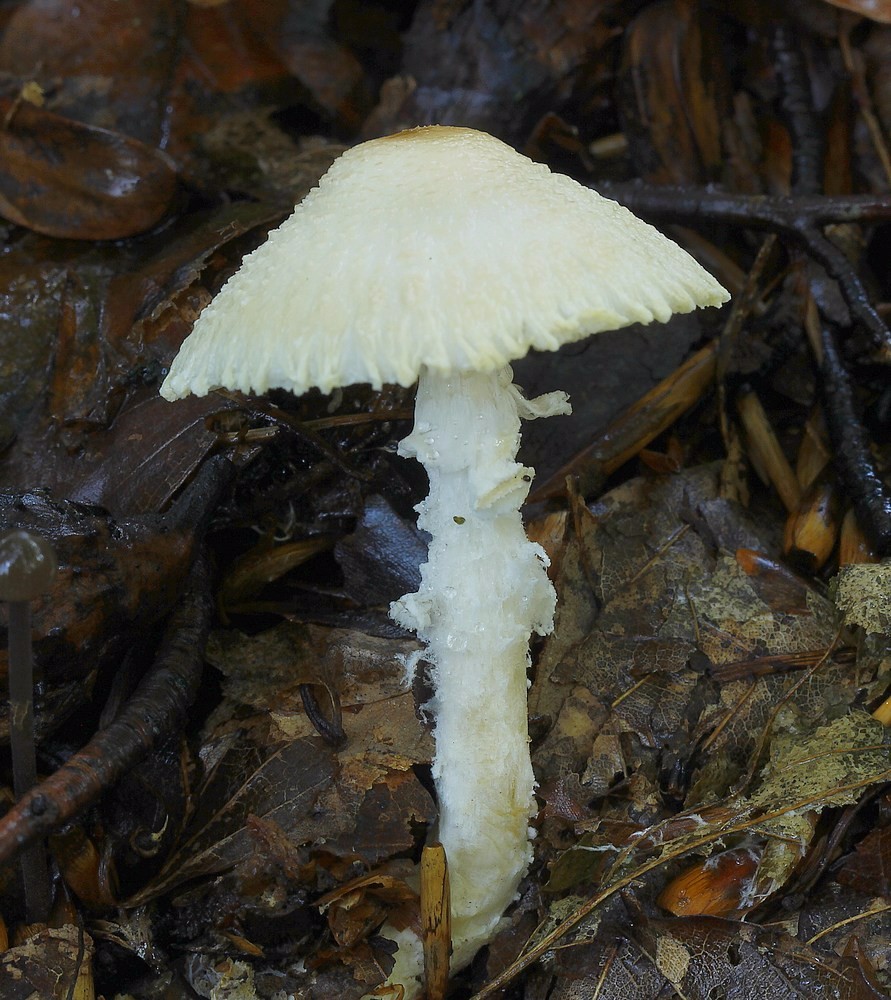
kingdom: Fungi
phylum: Basidiomycota
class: Agaricomycetes
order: Agaricales
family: Agaricaceae
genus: Lepiota
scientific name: Lepiota clypeolaria
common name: flosset parasolhat
